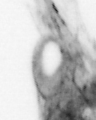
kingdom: Animalia
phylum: Chaetognatha
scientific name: Chaetognatha
